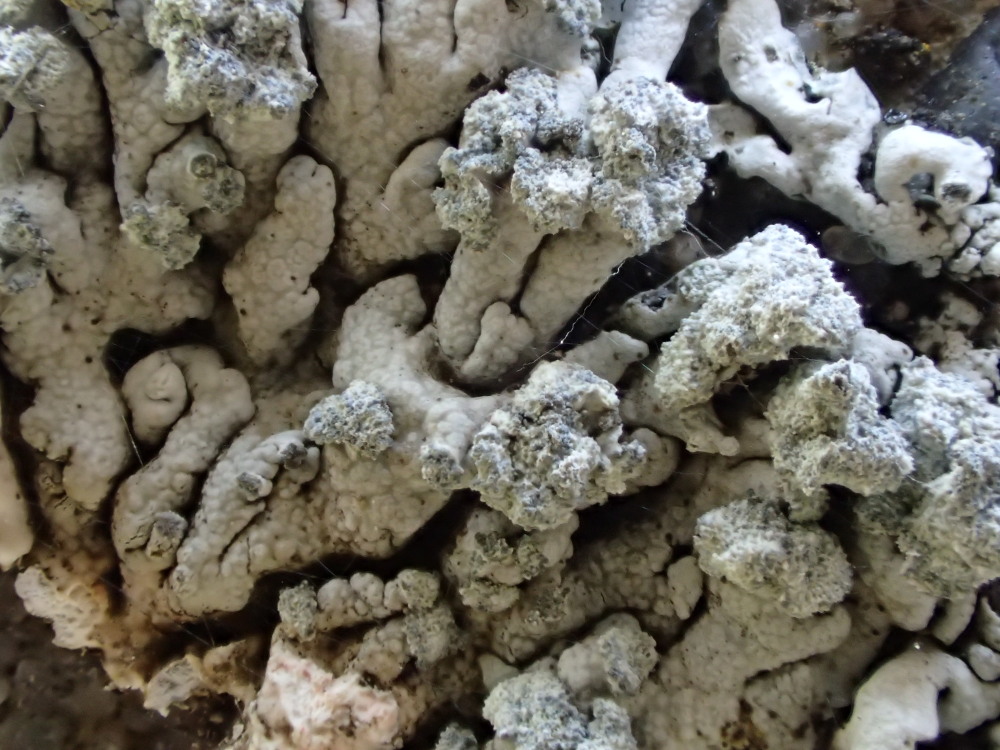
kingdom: Fungi
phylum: Ascomycota
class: Lecanoromycetes
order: Caliciales
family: Physciaceae
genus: Physcia
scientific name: Physcia caesia
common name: blågrå rosetlav
